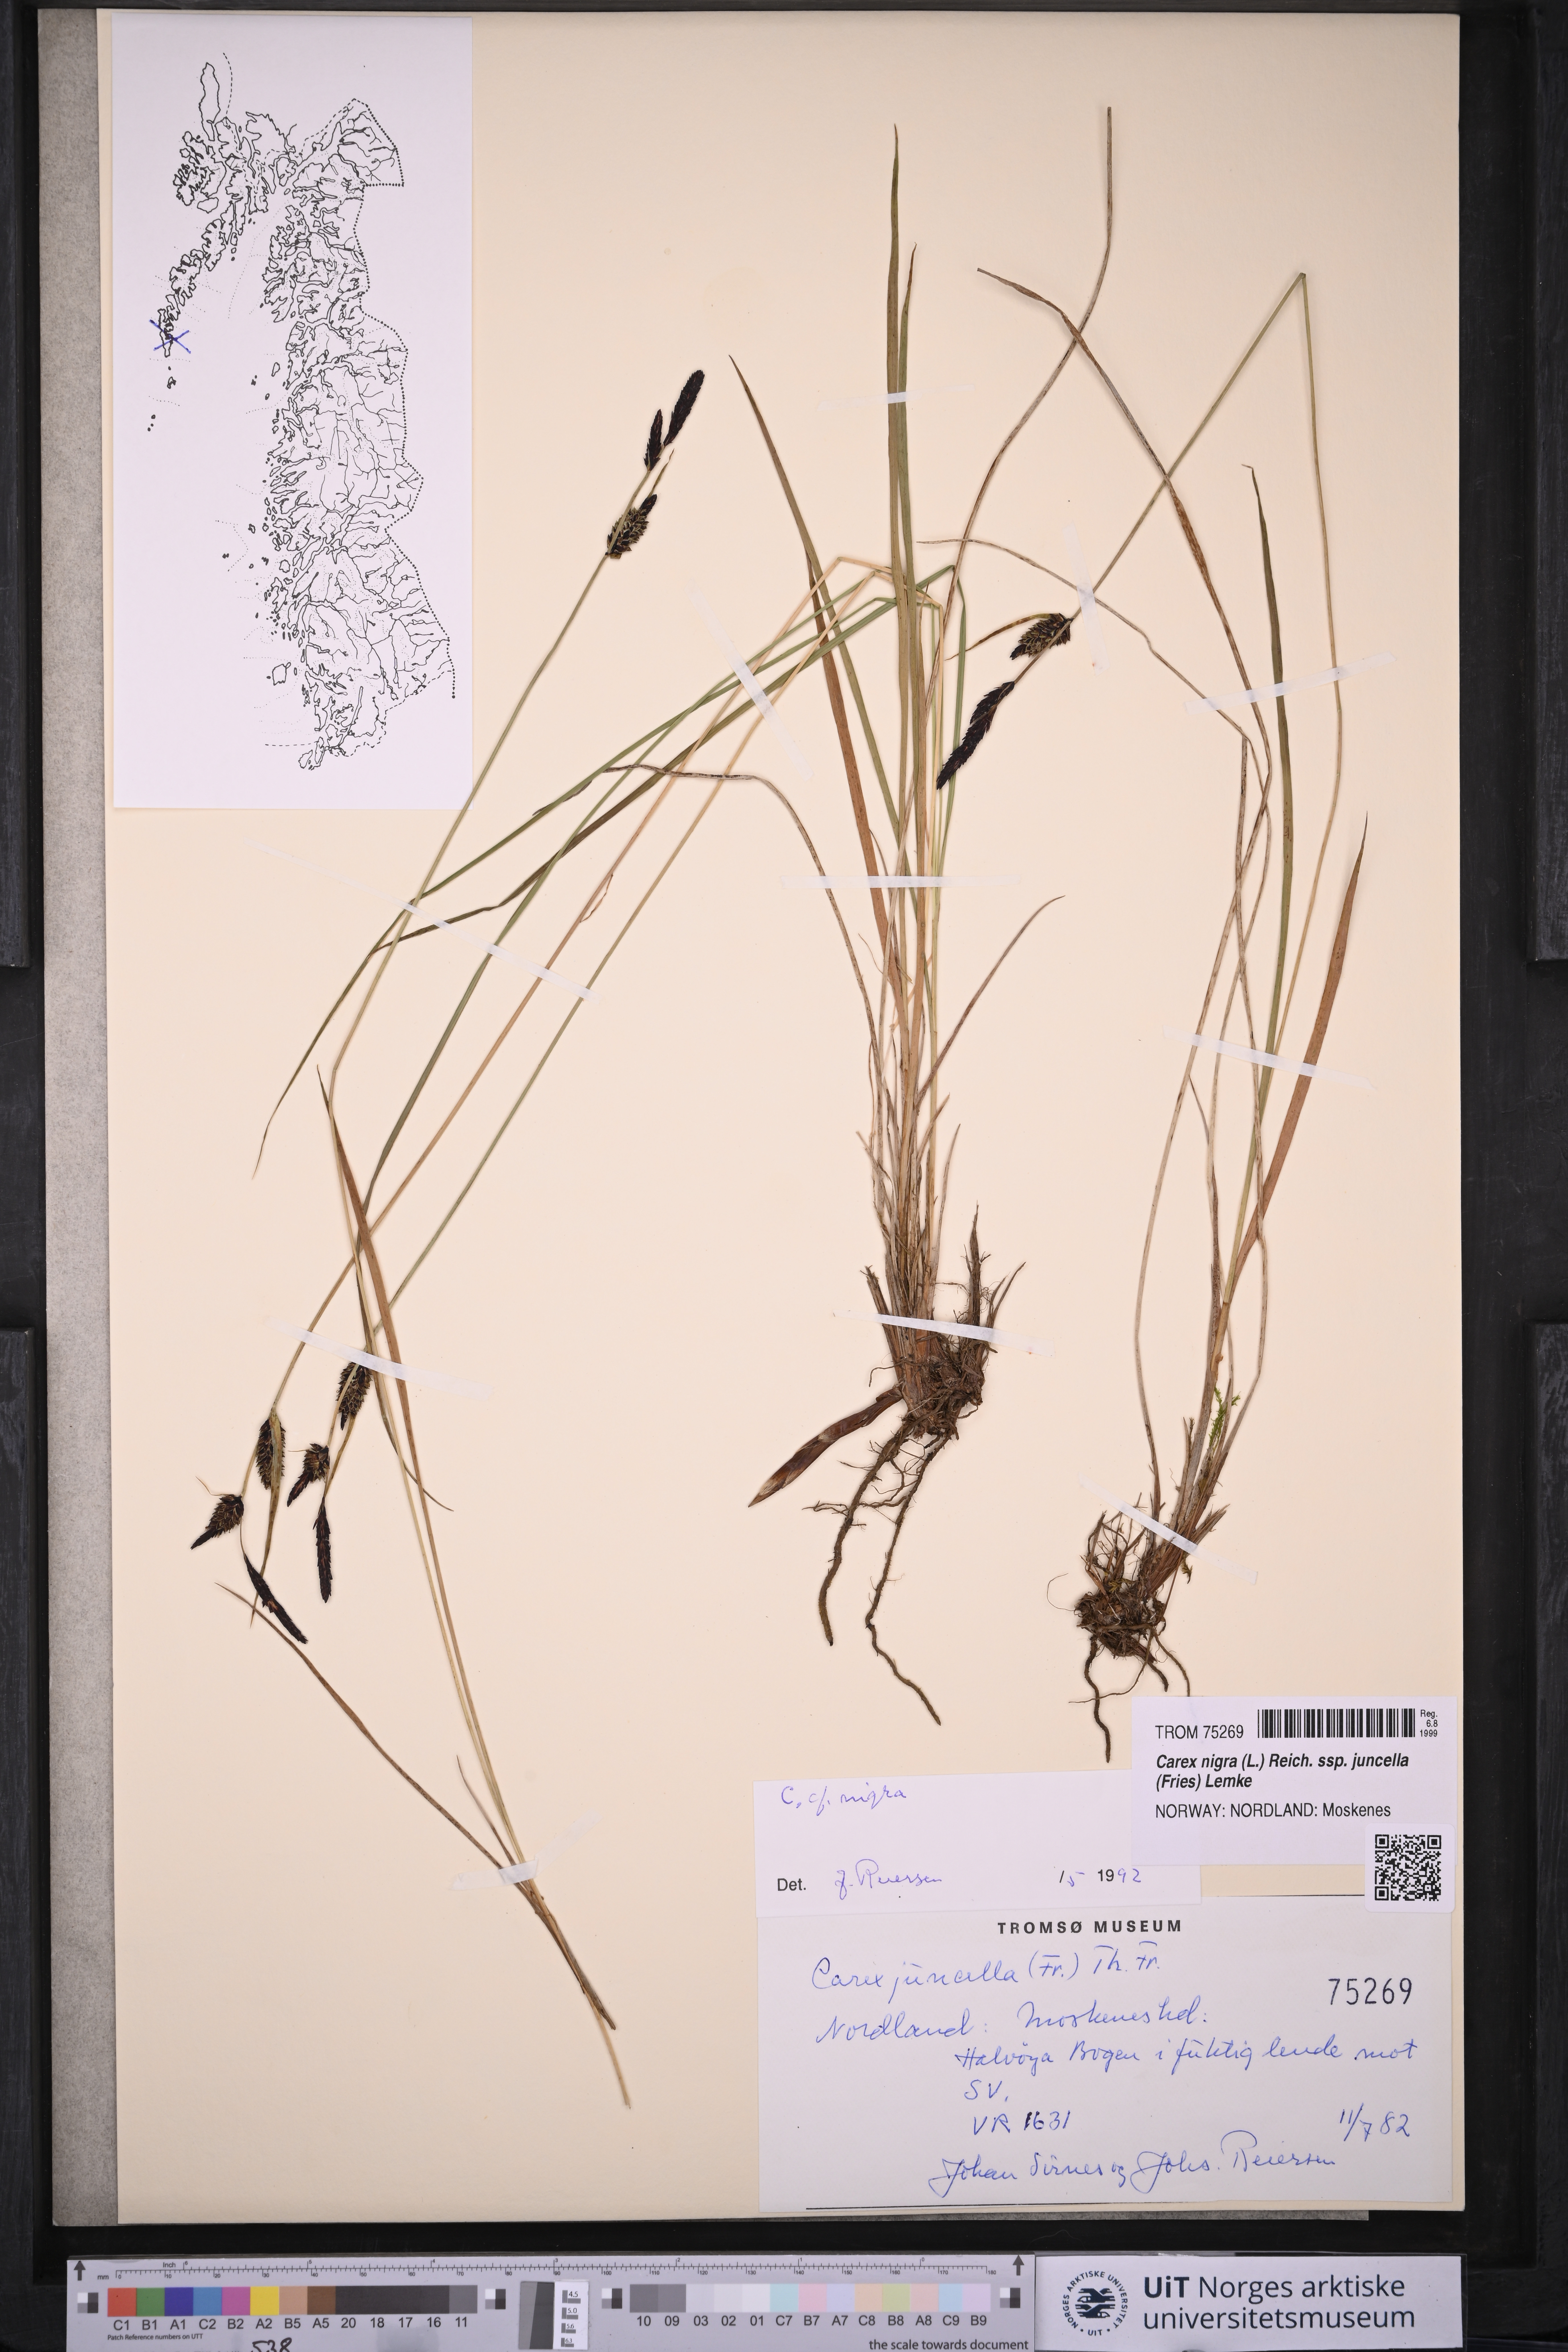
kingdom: Plantae
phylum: Tracheophyta
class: Liliopsida
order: Poales
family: Cyperaceae
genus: Carex
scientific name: Carex nigra
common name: Common sedge
